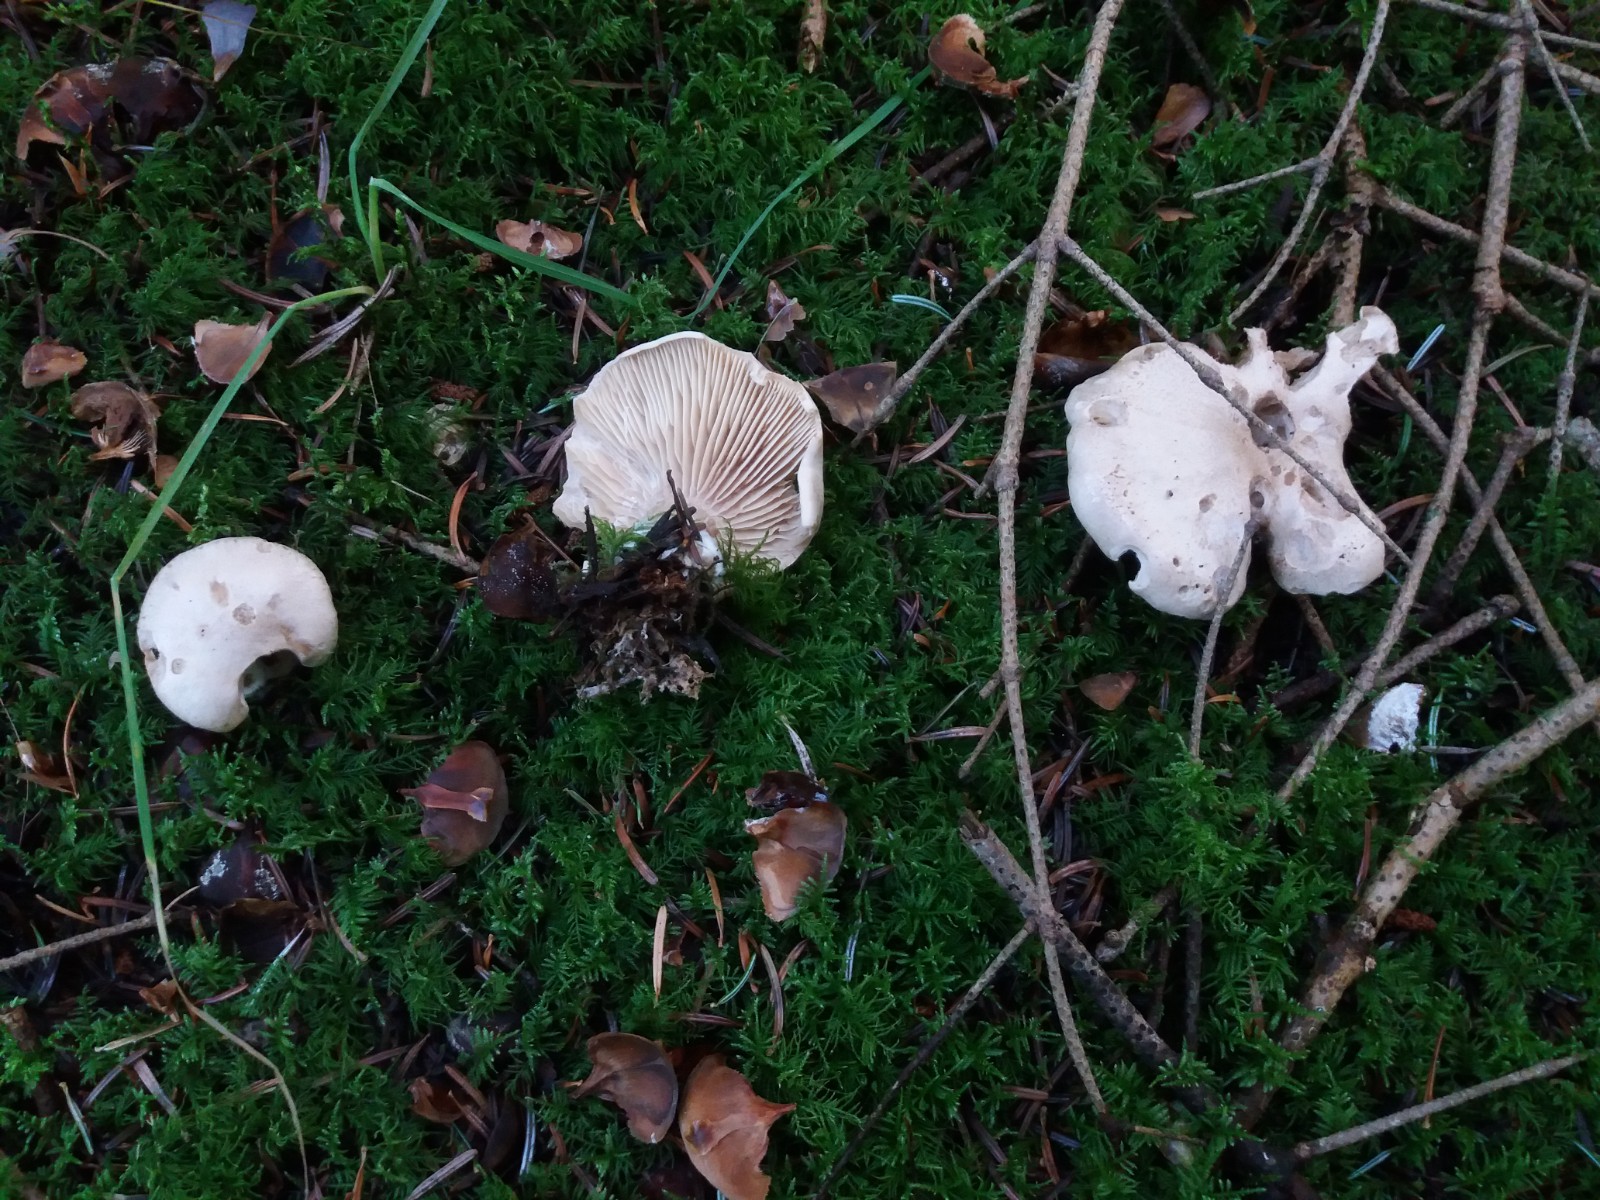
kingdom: Fungi
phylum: Basidiomycota
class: Agaricomycetes
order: Agaricales
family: Pseudoclitocybaceae
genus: Clitopaxillus
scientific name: Clitopaxillus fibulatus
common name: bestøvlet tragthat
